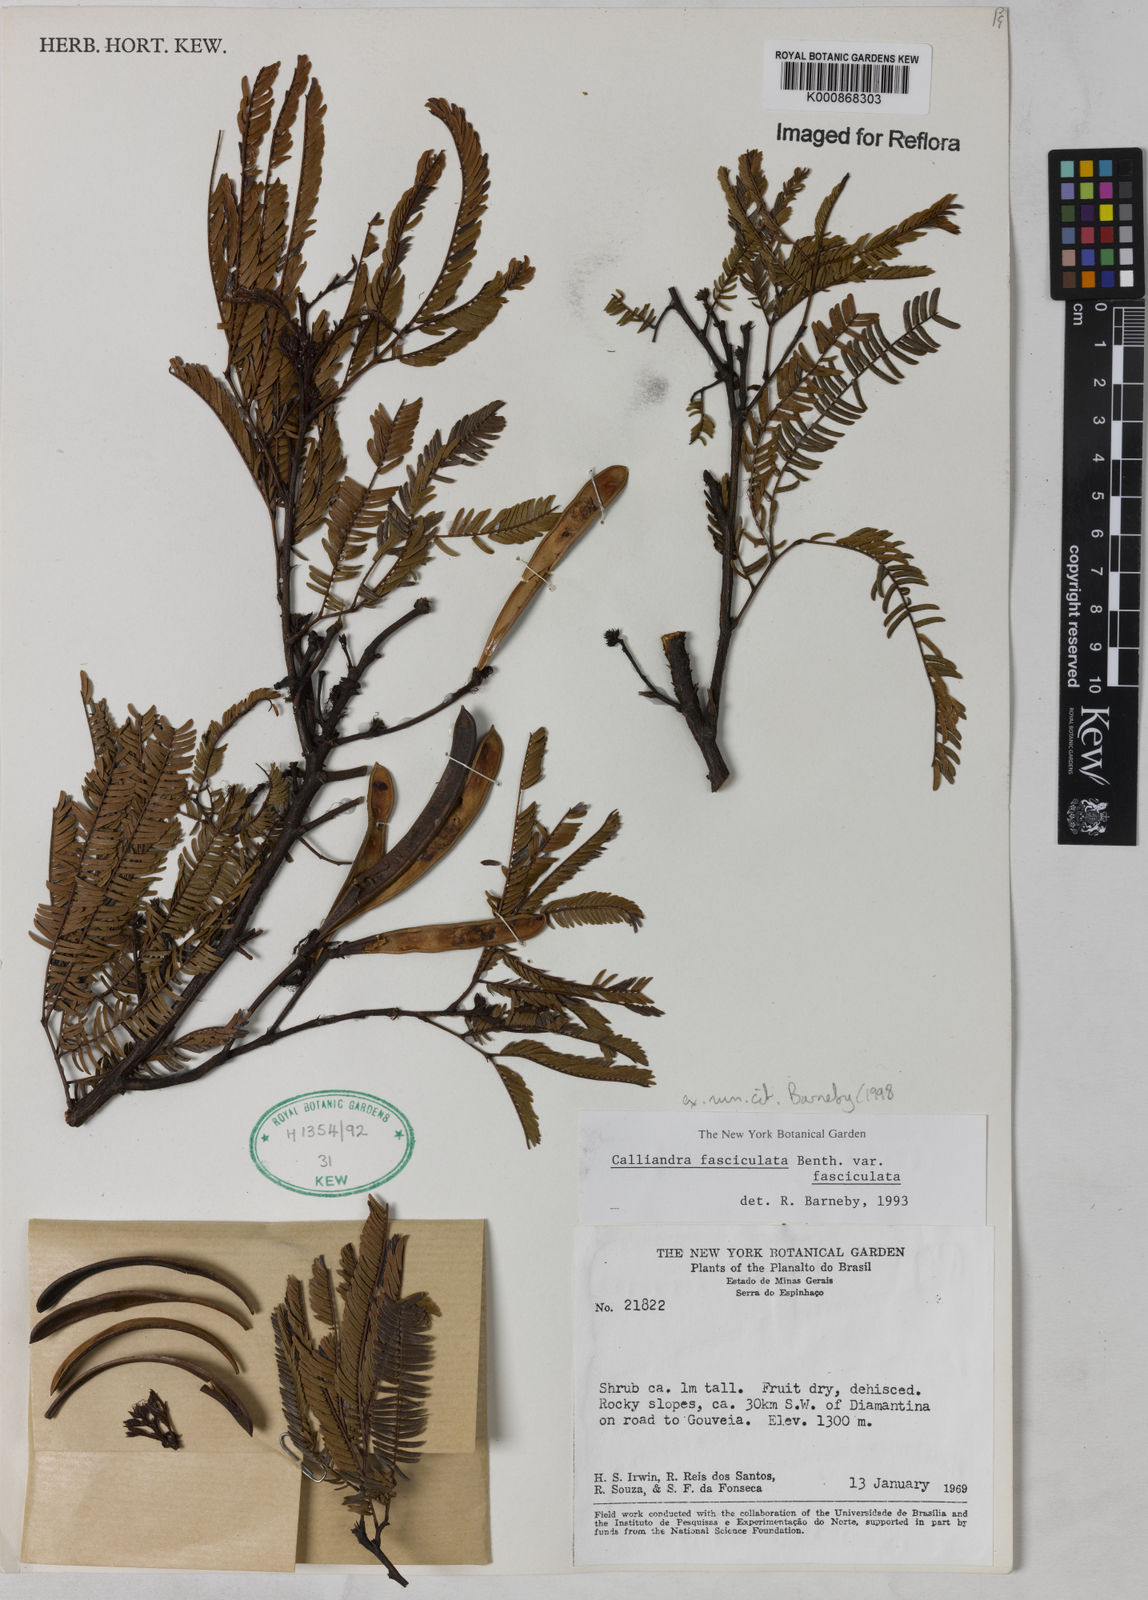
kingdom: Plantae
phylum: Tracheophyta
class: Magnoliopsida
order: Fabales
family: Fabaceae
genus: Calliandra
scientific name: Calliandra fasciculata
